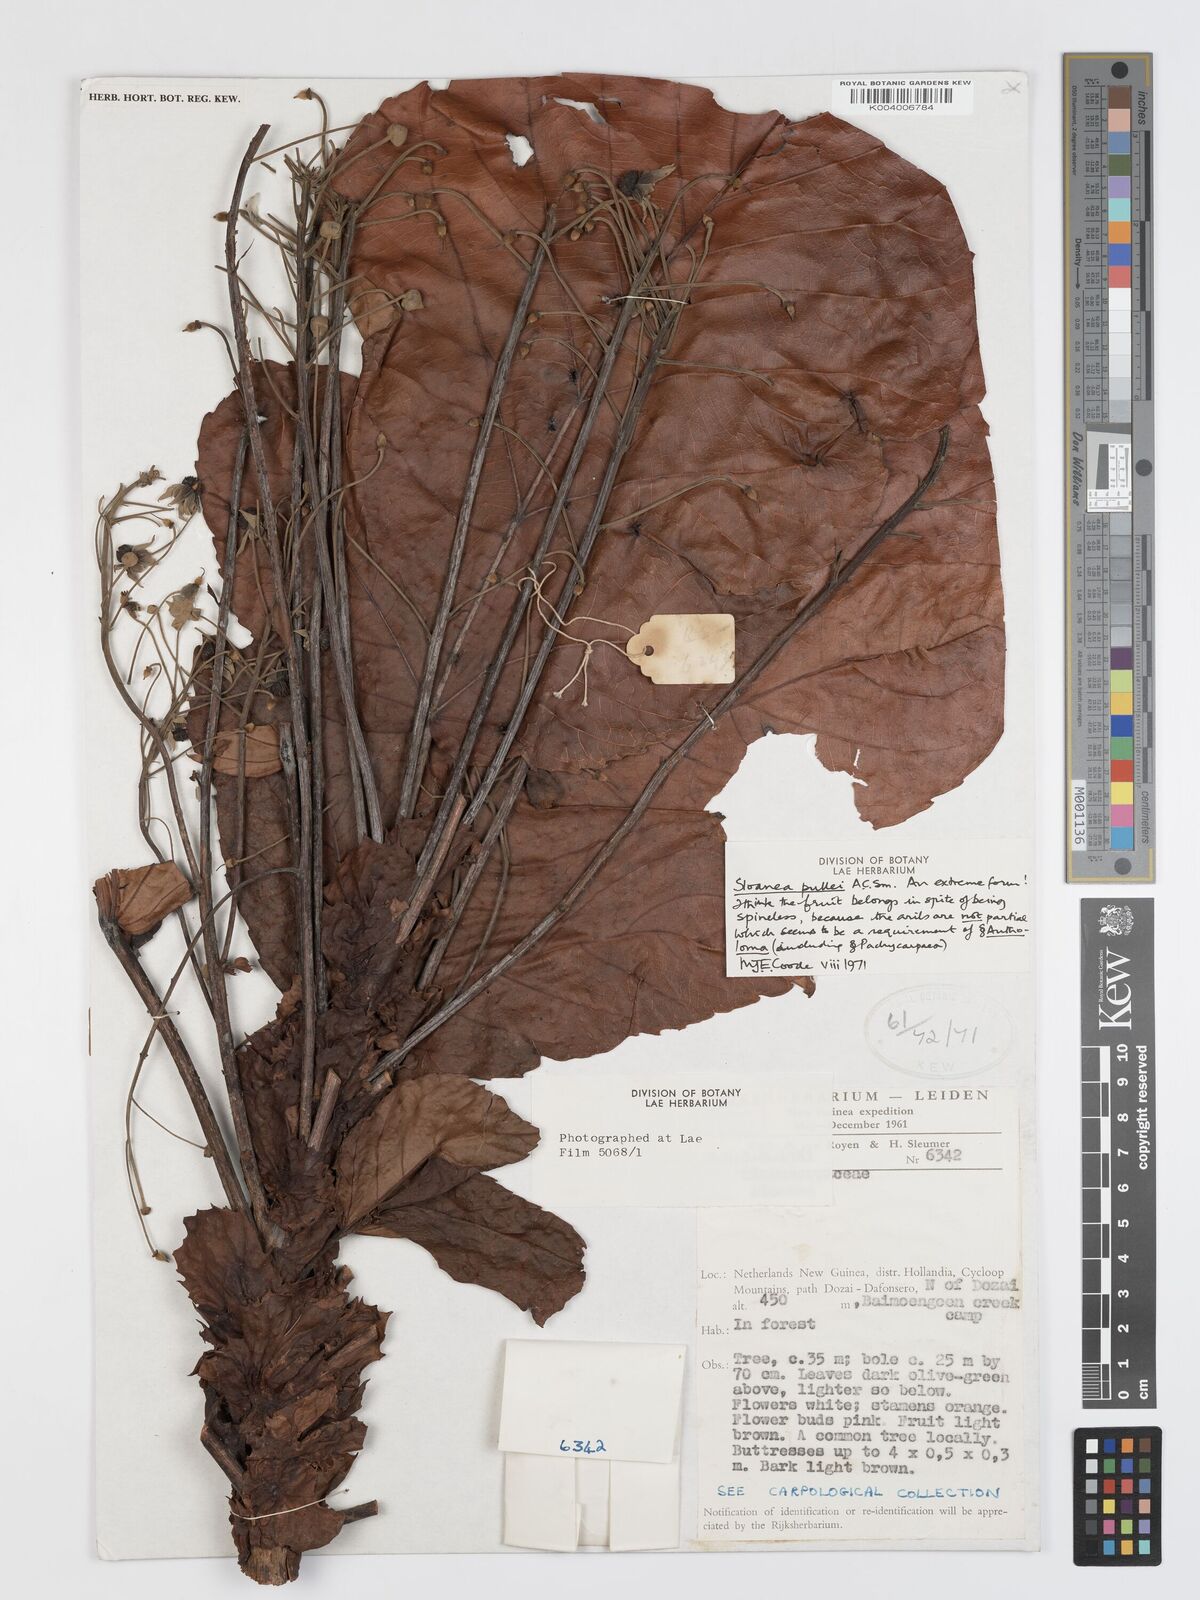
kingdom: Plantae
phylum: Tracheophyta
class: Magnoliopsida
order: Oxalidales
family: Elaeocarpaceae
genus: Sloanea
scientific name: Sloanea pullei
